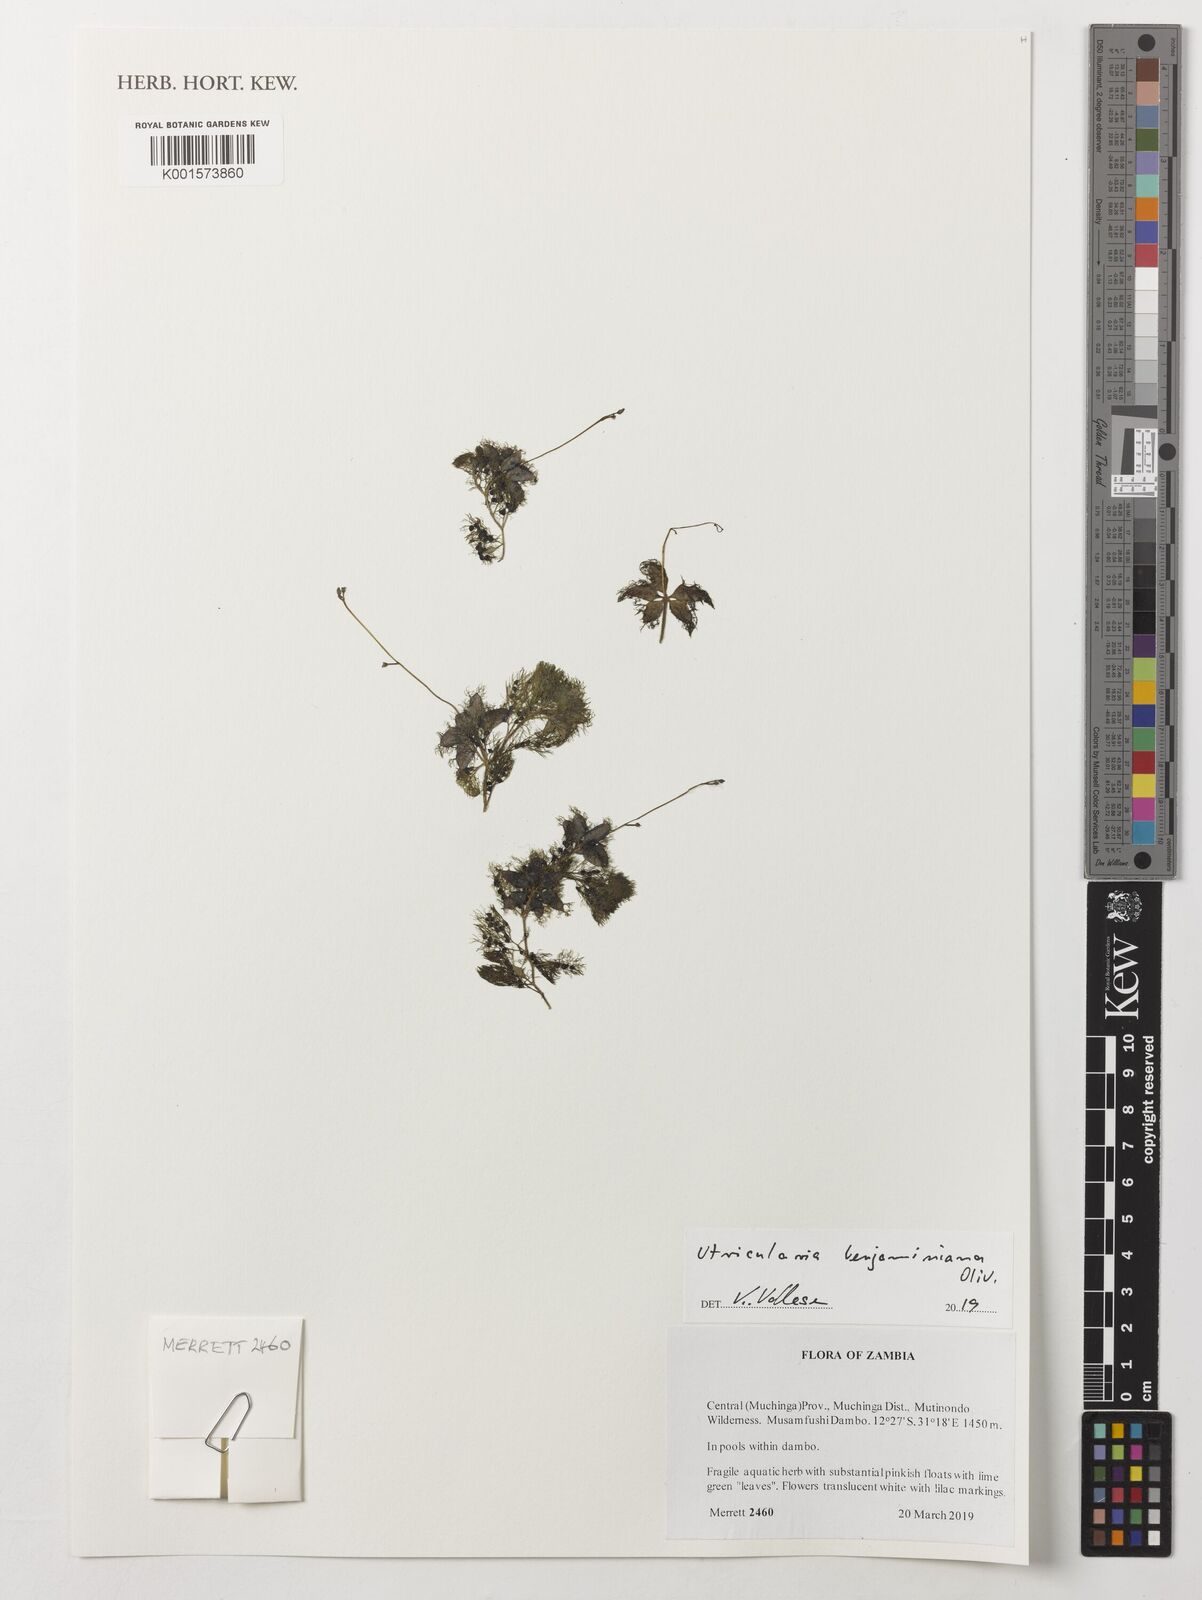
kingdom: Plantae
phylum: Tracheophyta
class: Magnoliopsida
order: Lamiales
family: Lentibulariaceae
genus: Utricularia
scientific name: Utricularia benjaminiana
